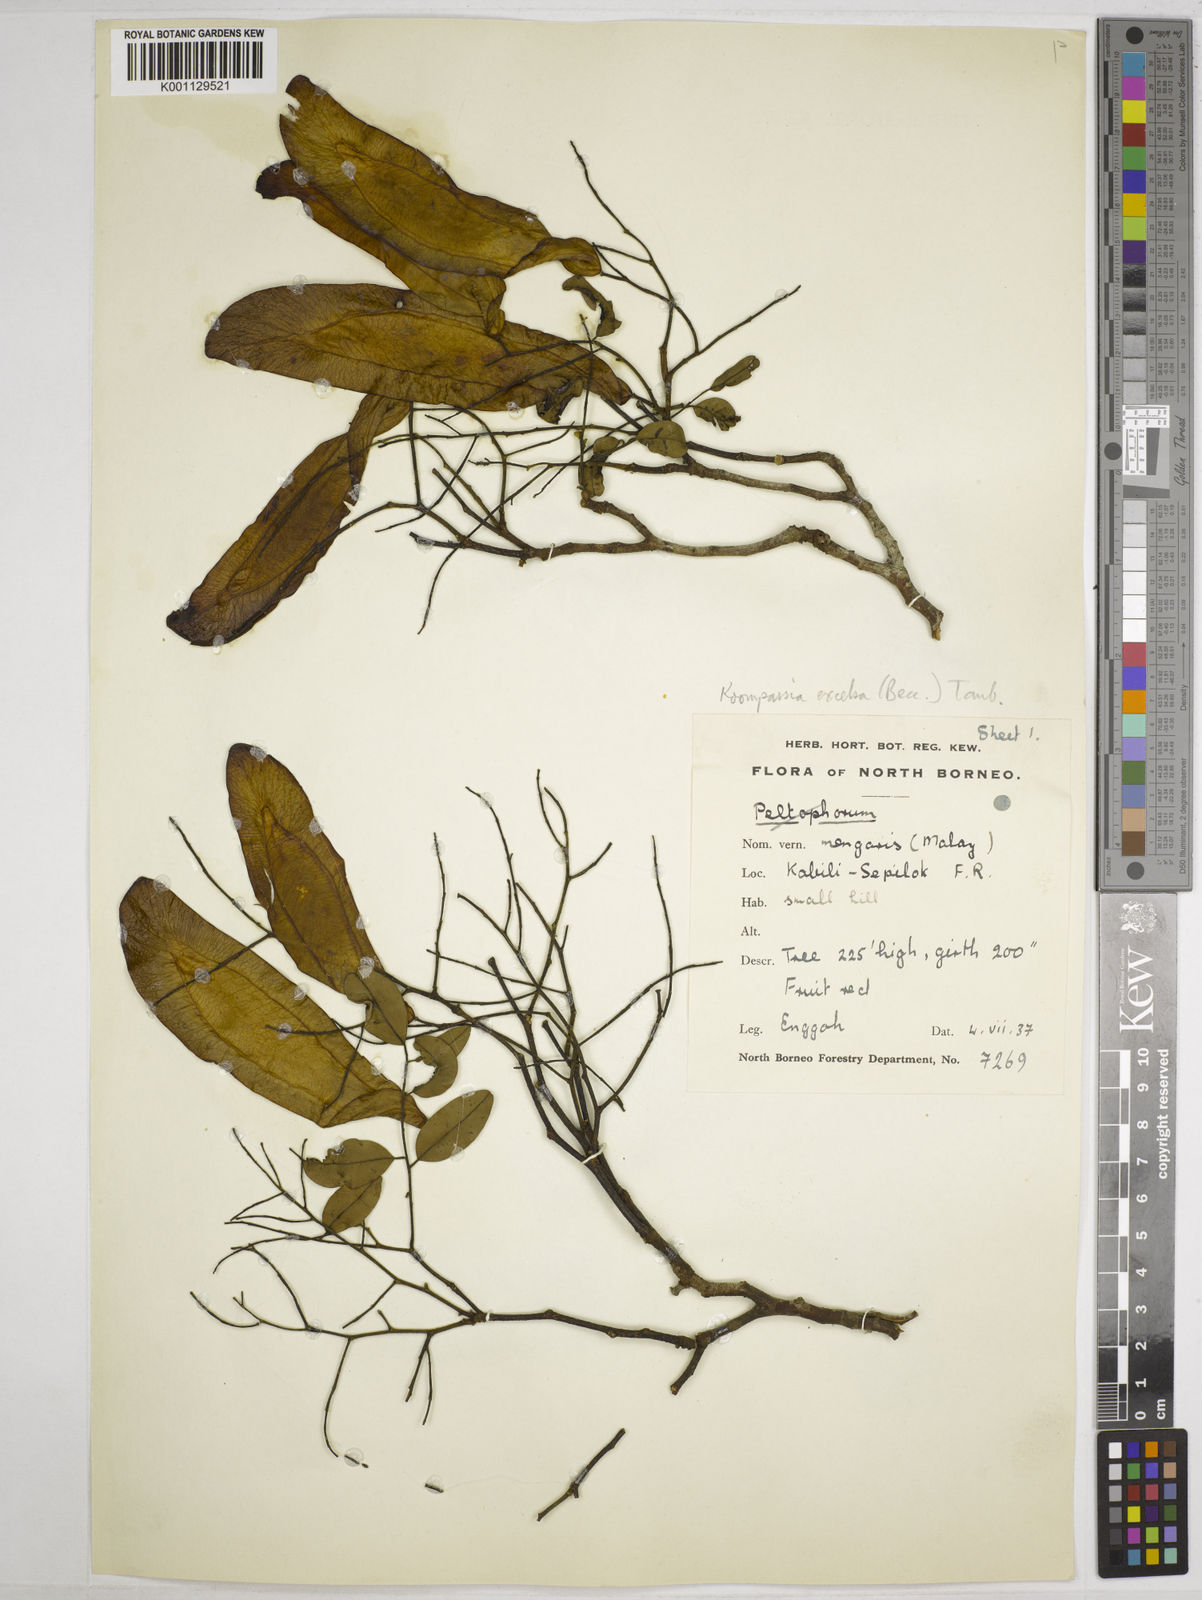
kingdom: Plantae
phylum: Tracheophyta
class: Magnoliopsida
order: Fabales
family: Fabaceae
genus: Koompassia
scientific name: Koompassia excelsa
